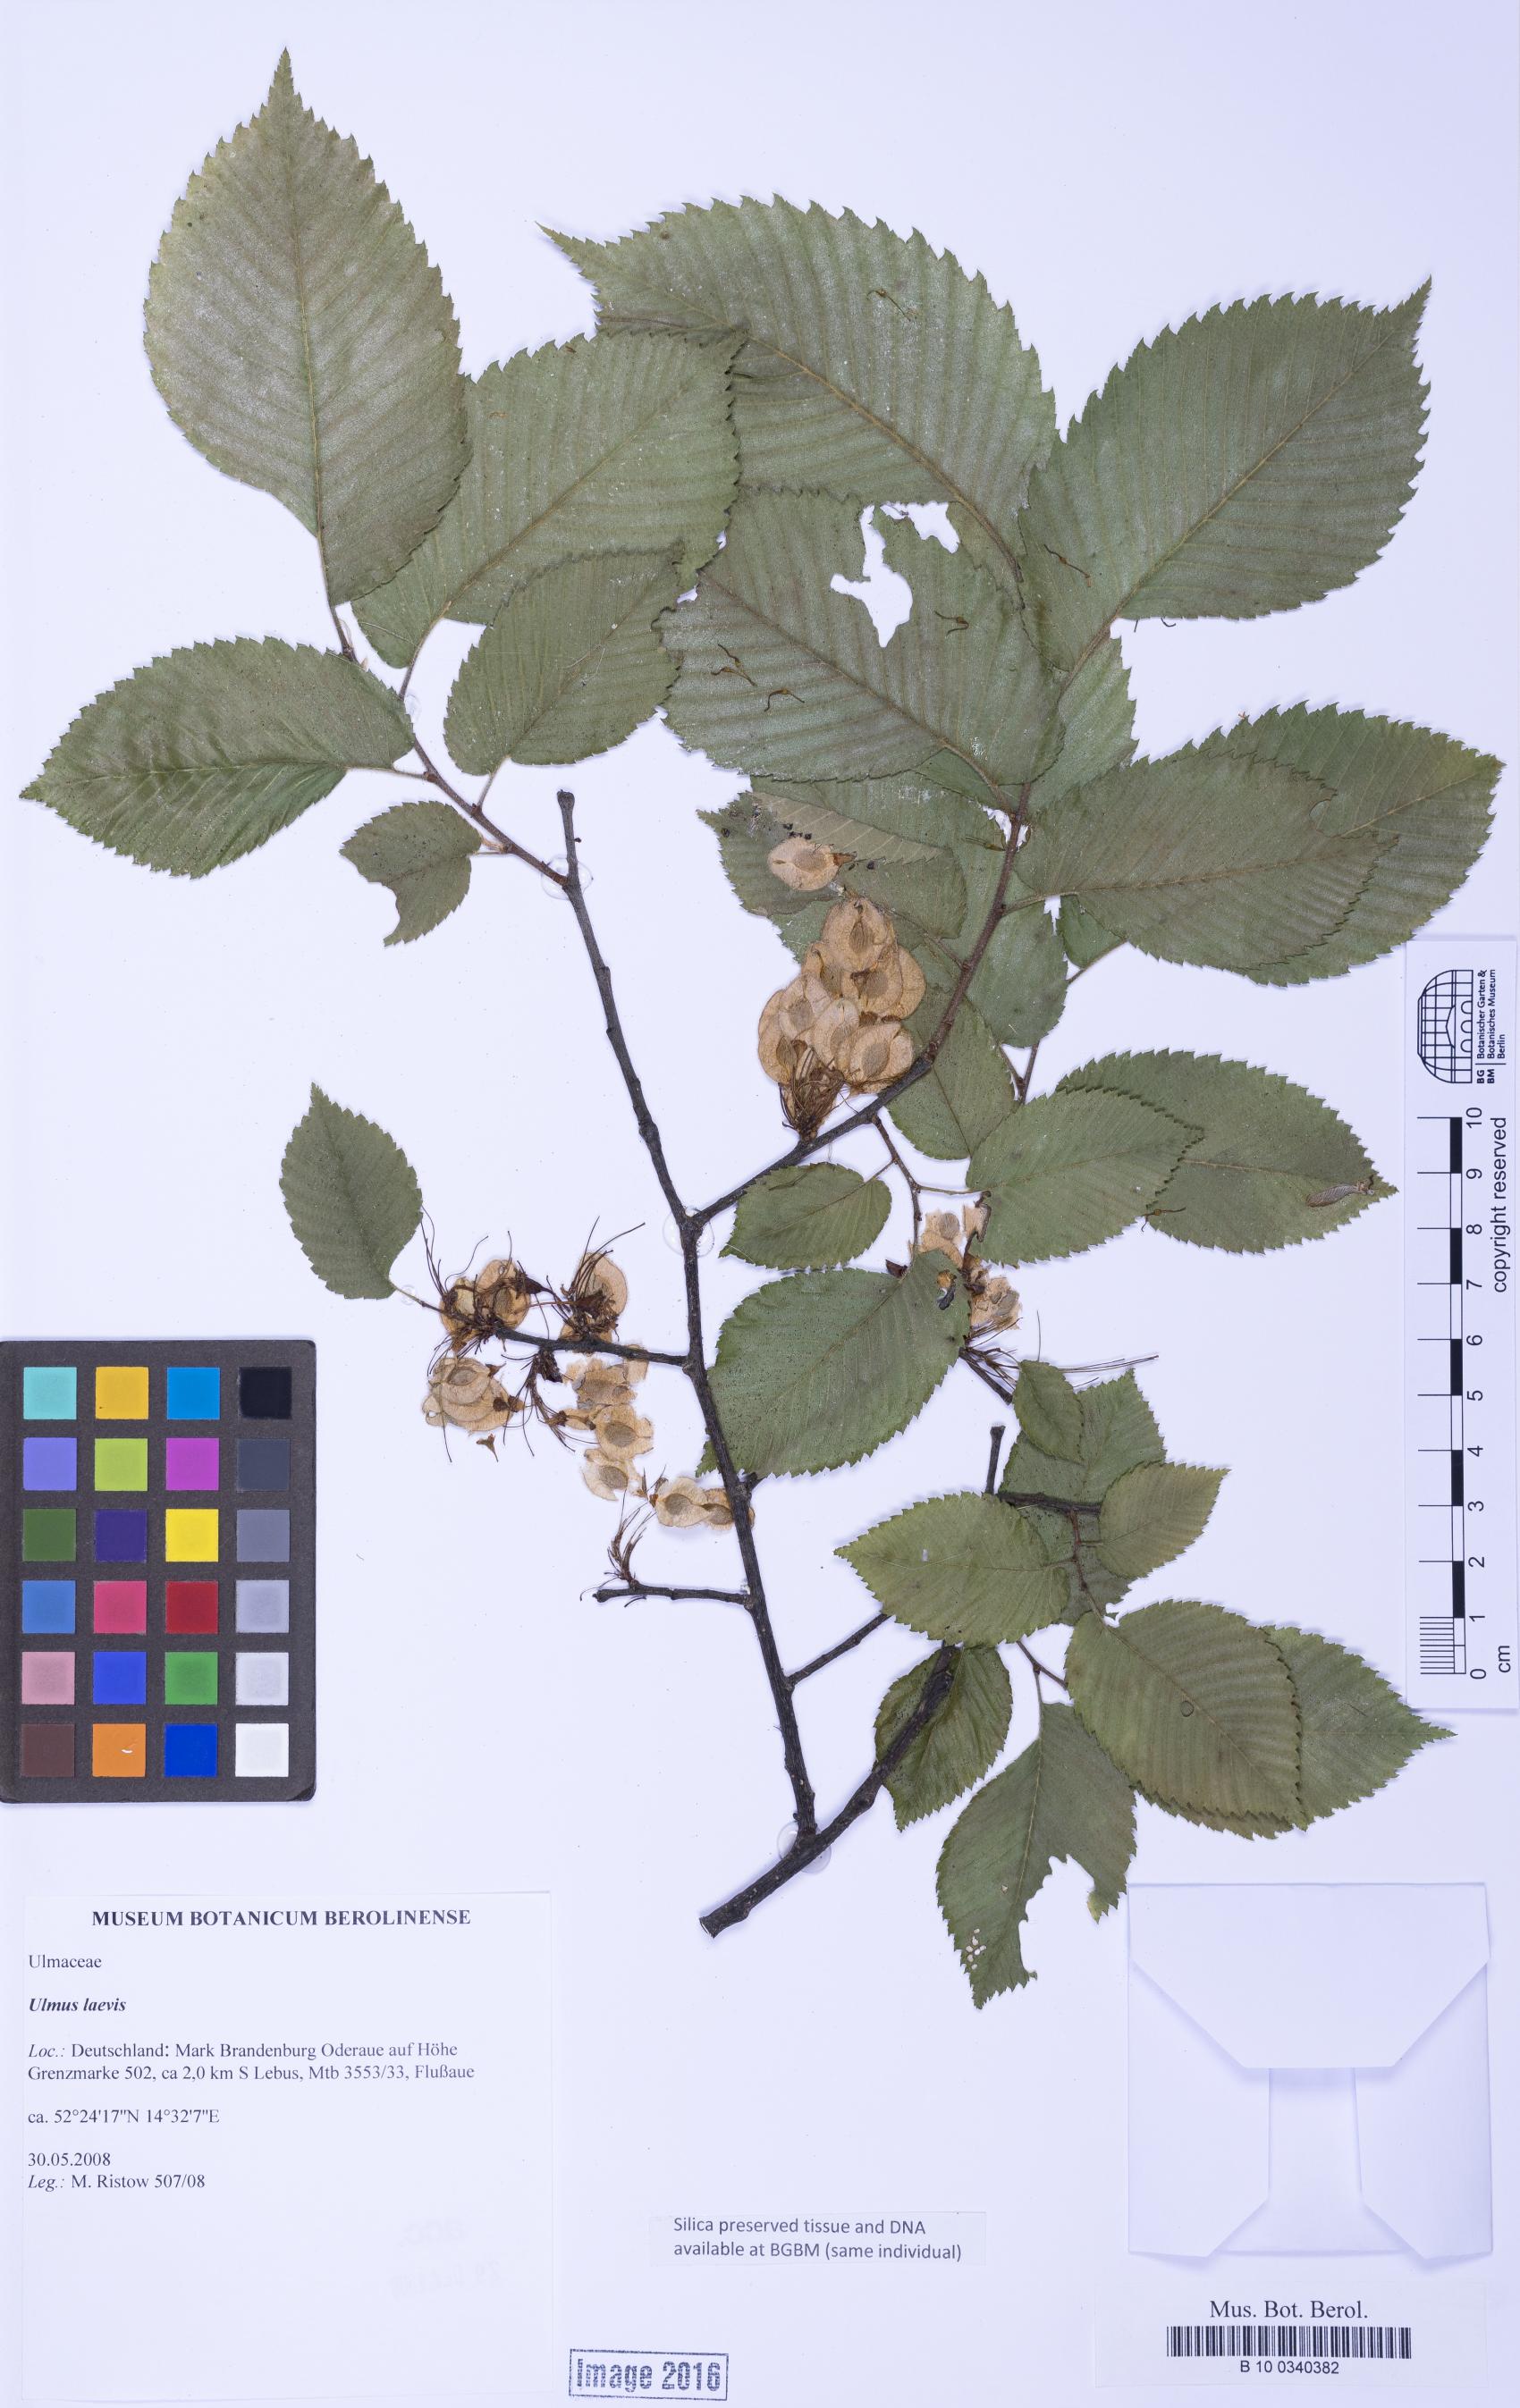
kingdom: Plantae
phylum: Tracheophyta
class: Magnoliopsida
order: Rosales
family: Ulmaceae
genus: Ulmus
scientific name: Ulmus laevis
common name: European white-elm
